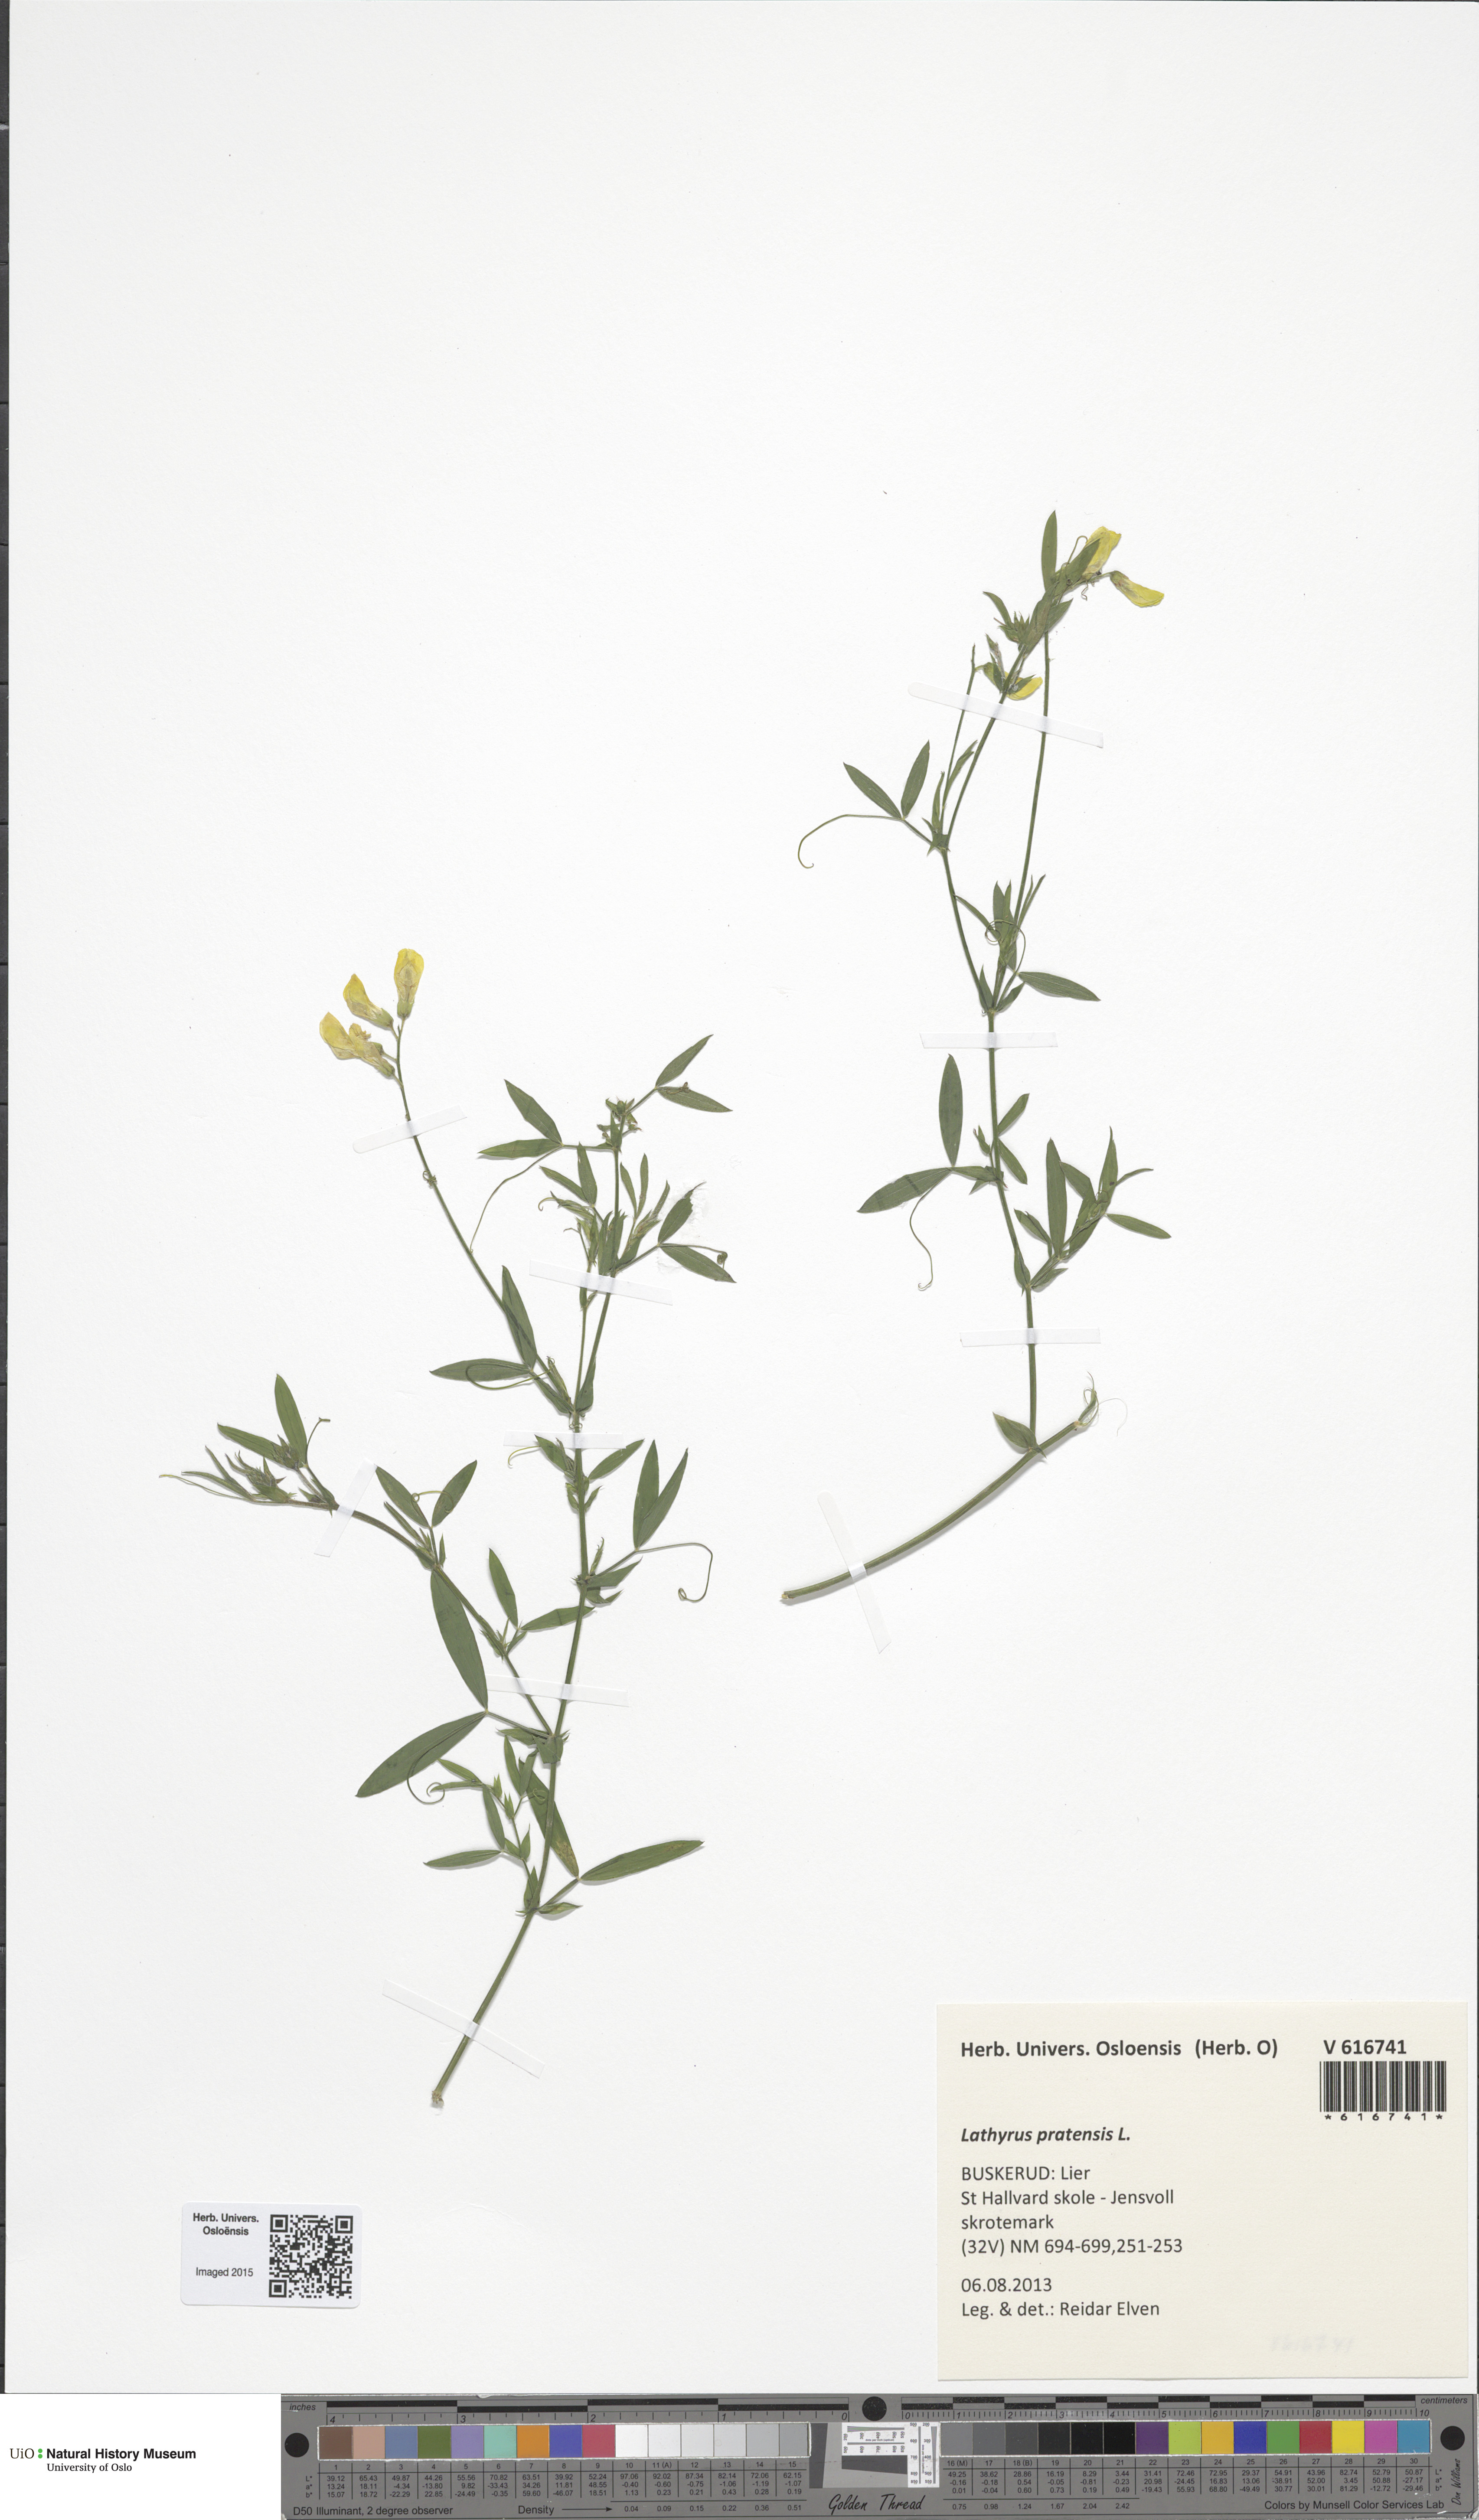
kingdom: Plantae
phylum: Tracheophyta
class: Magnoliopsida
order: Fabales
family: Fabaceae
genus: Lathyrus
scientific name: Lathyrus pratensis
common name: Meadow vetchling
